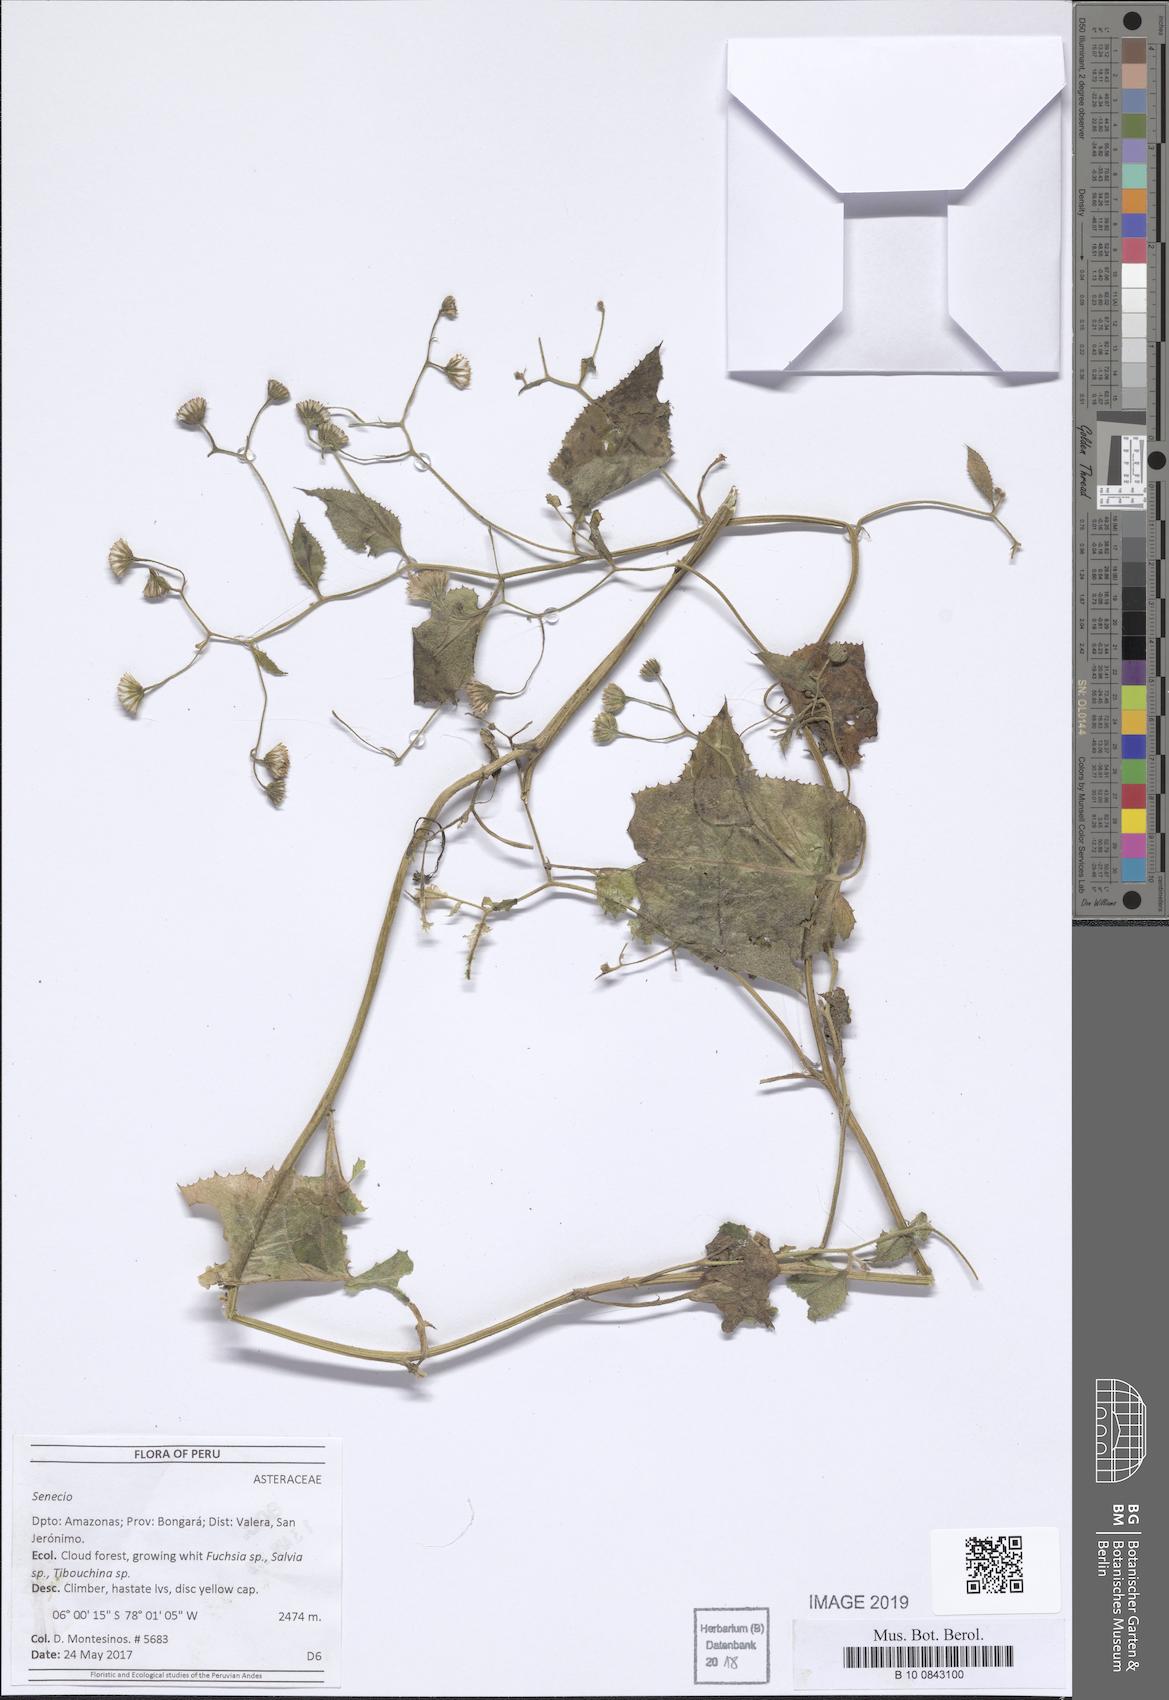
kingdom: Plantae
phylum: Tracheophyta
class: Magnoliopsida
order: Asterales
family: Asteraceae
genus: Cremanthodium
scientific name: Cremanthodium campanulatum
